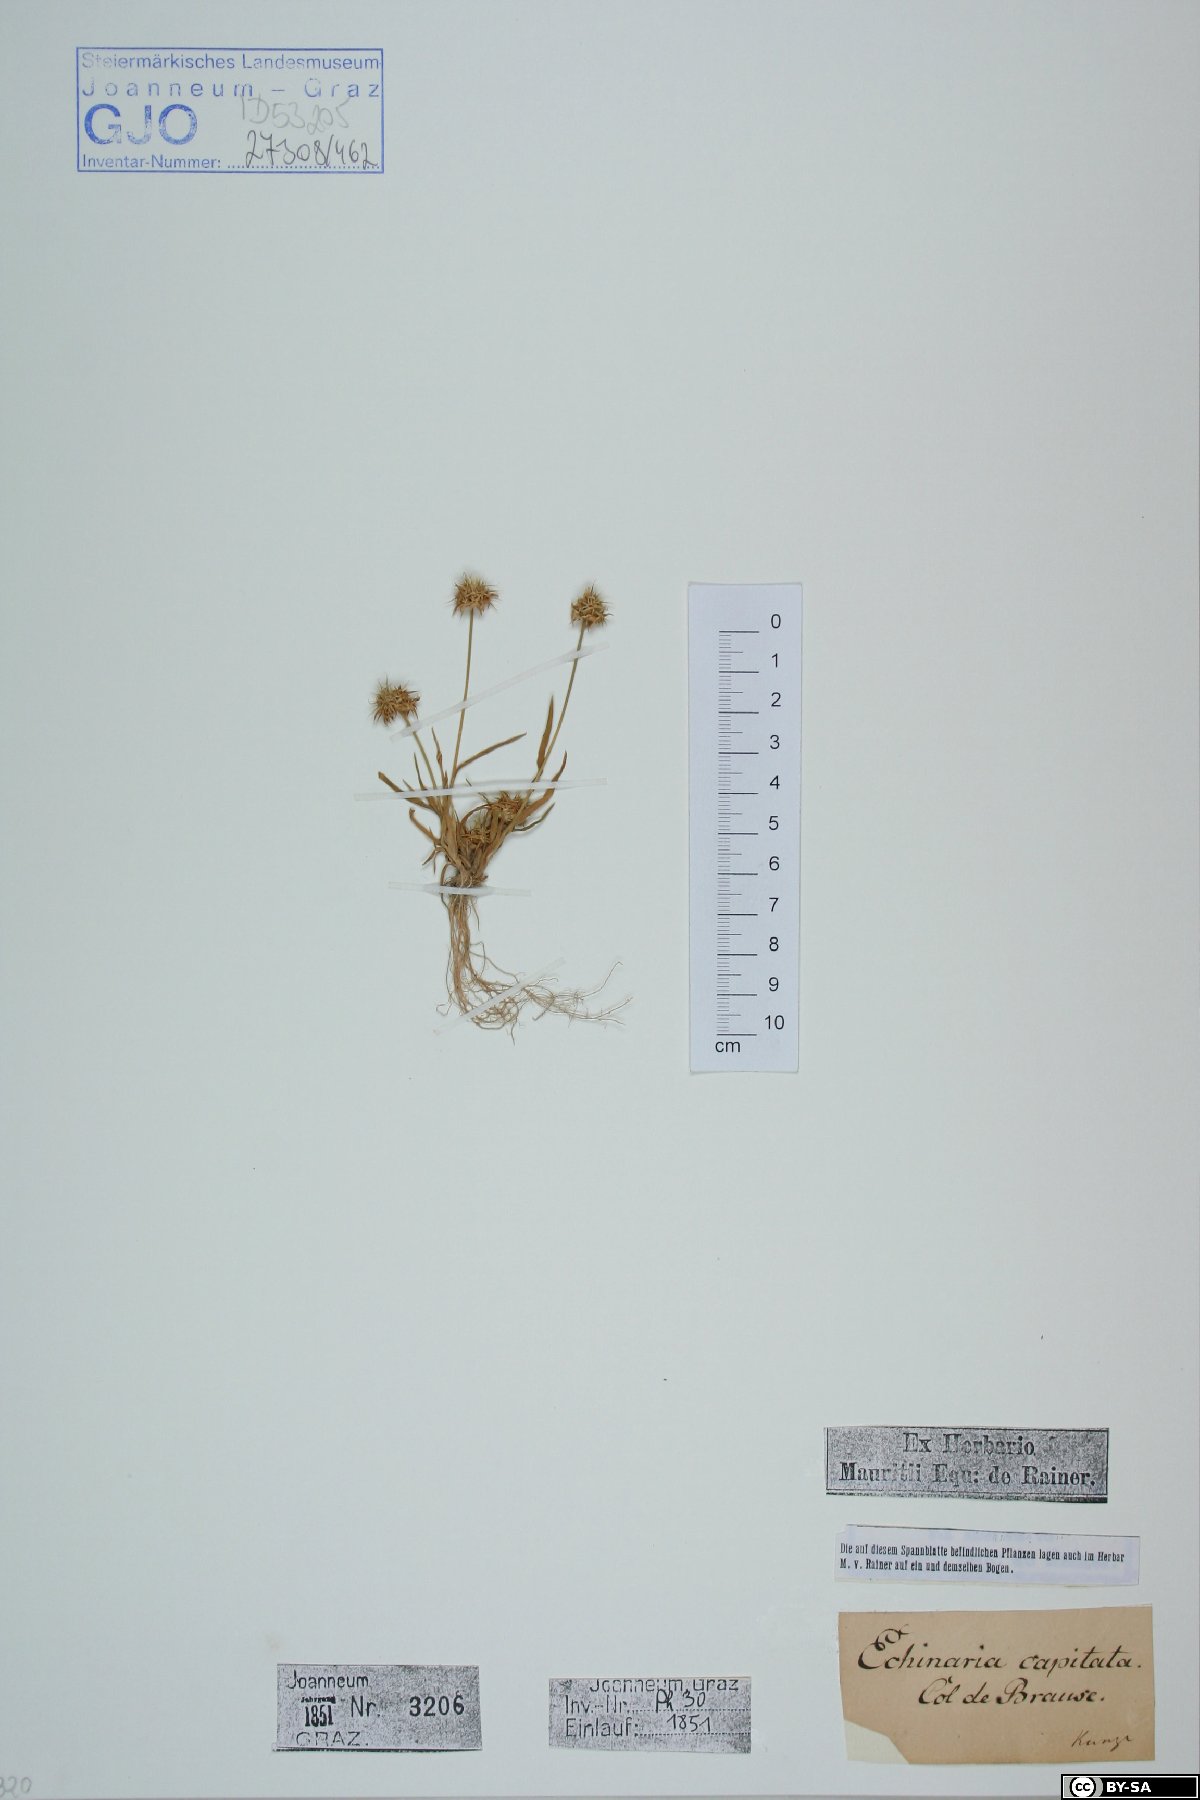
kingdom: Plantae
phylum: Tracheophyta
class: Liliopsida
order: Poales
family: Poaceae
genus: Echinaria
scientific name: Echinaria capitata
